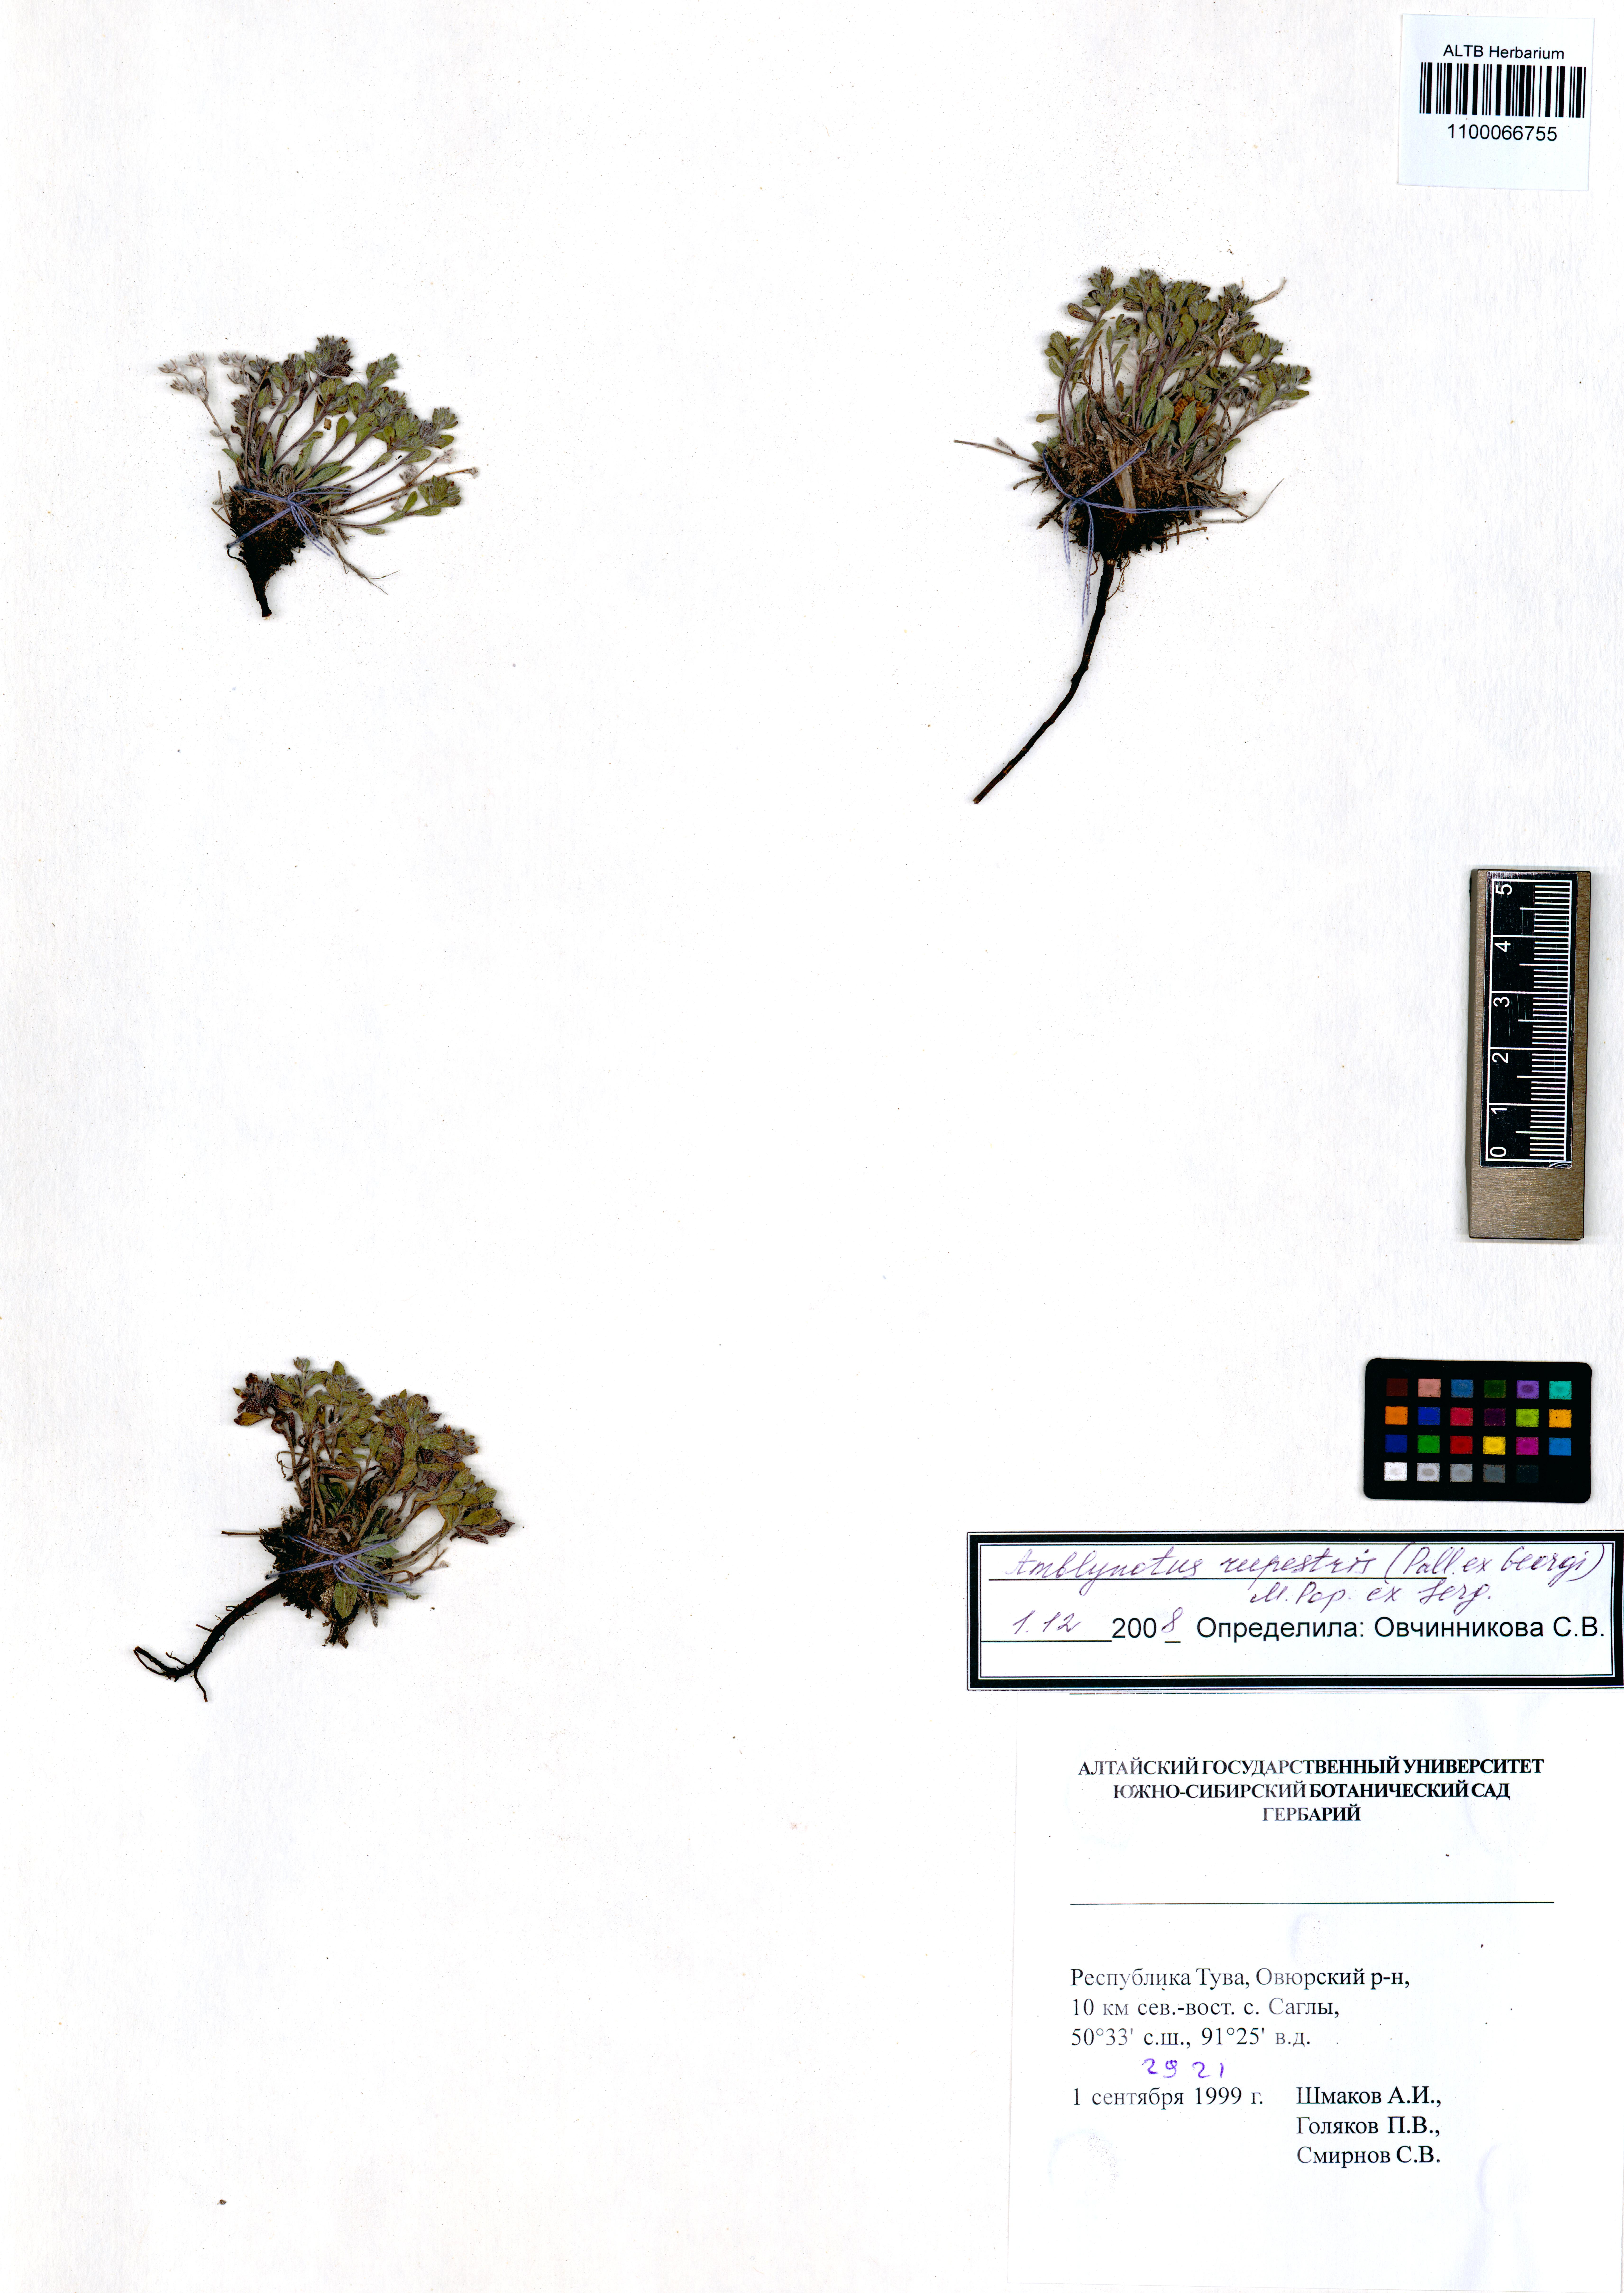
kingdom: Plantae
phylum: Tracheophyta
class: Magnoliopsida
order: Boraginales
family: Boraginaceae
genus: Eritrichium
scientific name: Eritrichium rupestre
